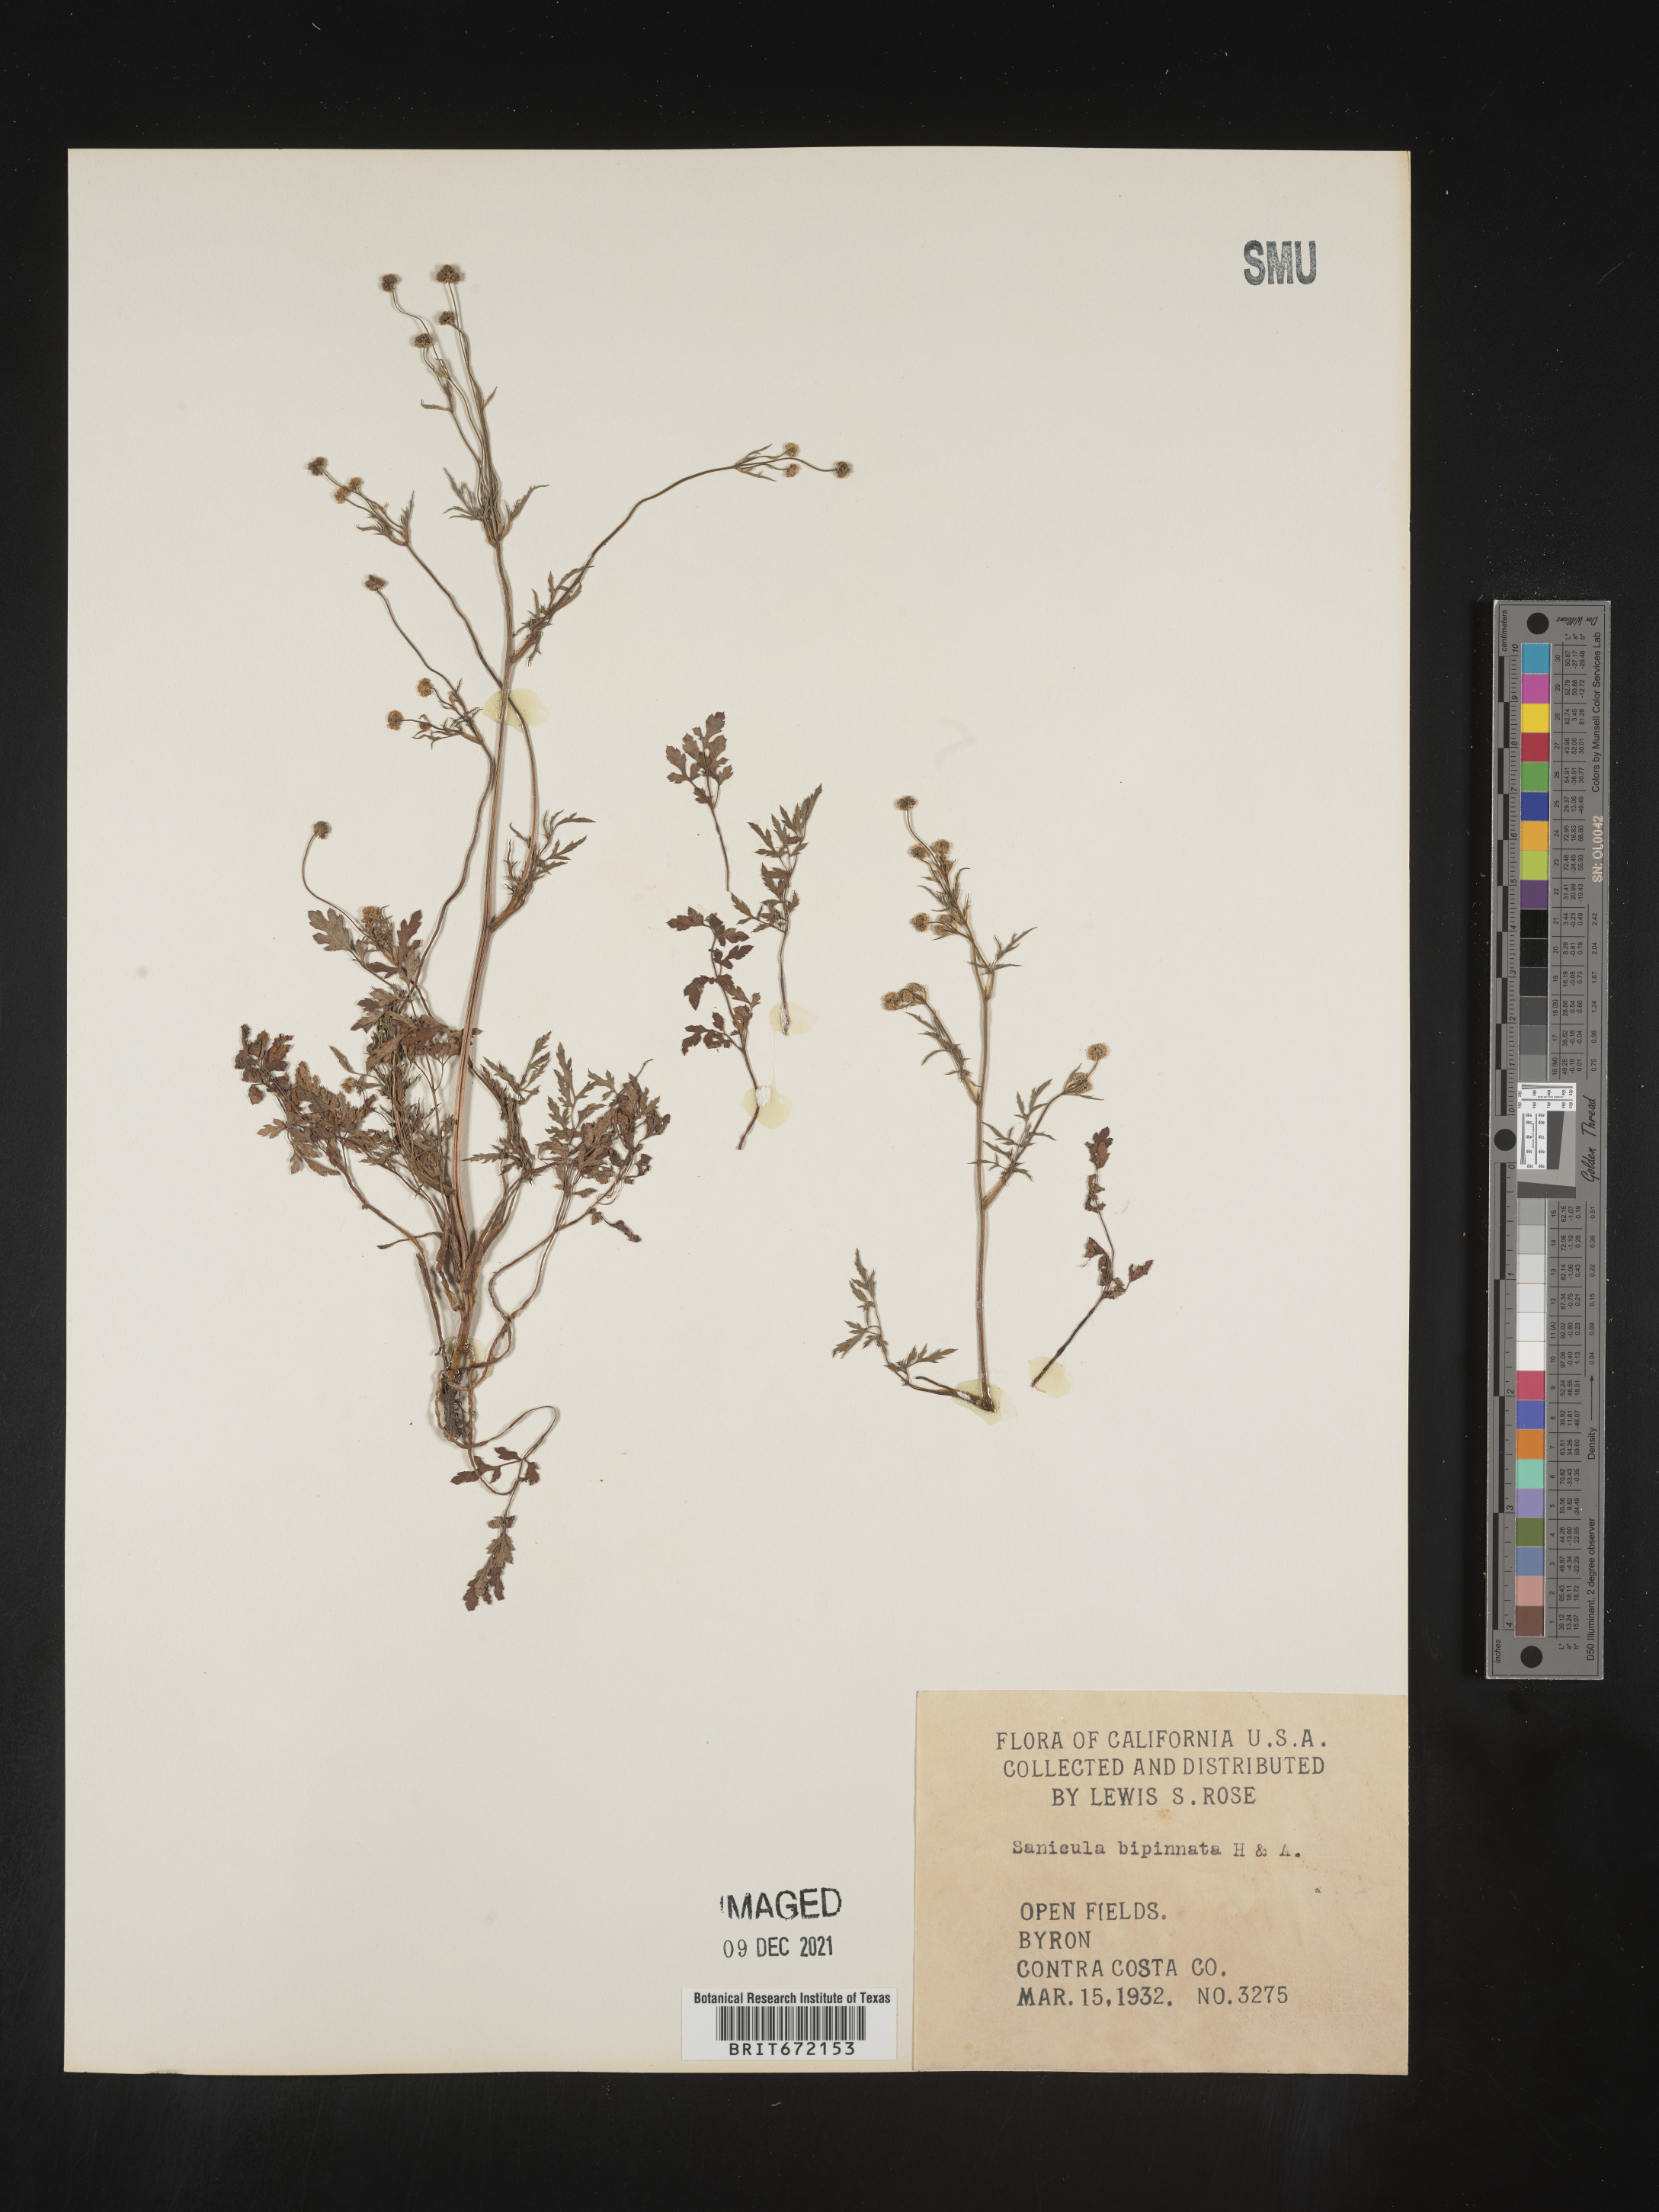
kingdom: Plantae
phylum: Tracheophyta
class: Magnoliopsida
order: Apiales
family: Apiaceae
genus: Sanicula
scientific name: Sanicula
